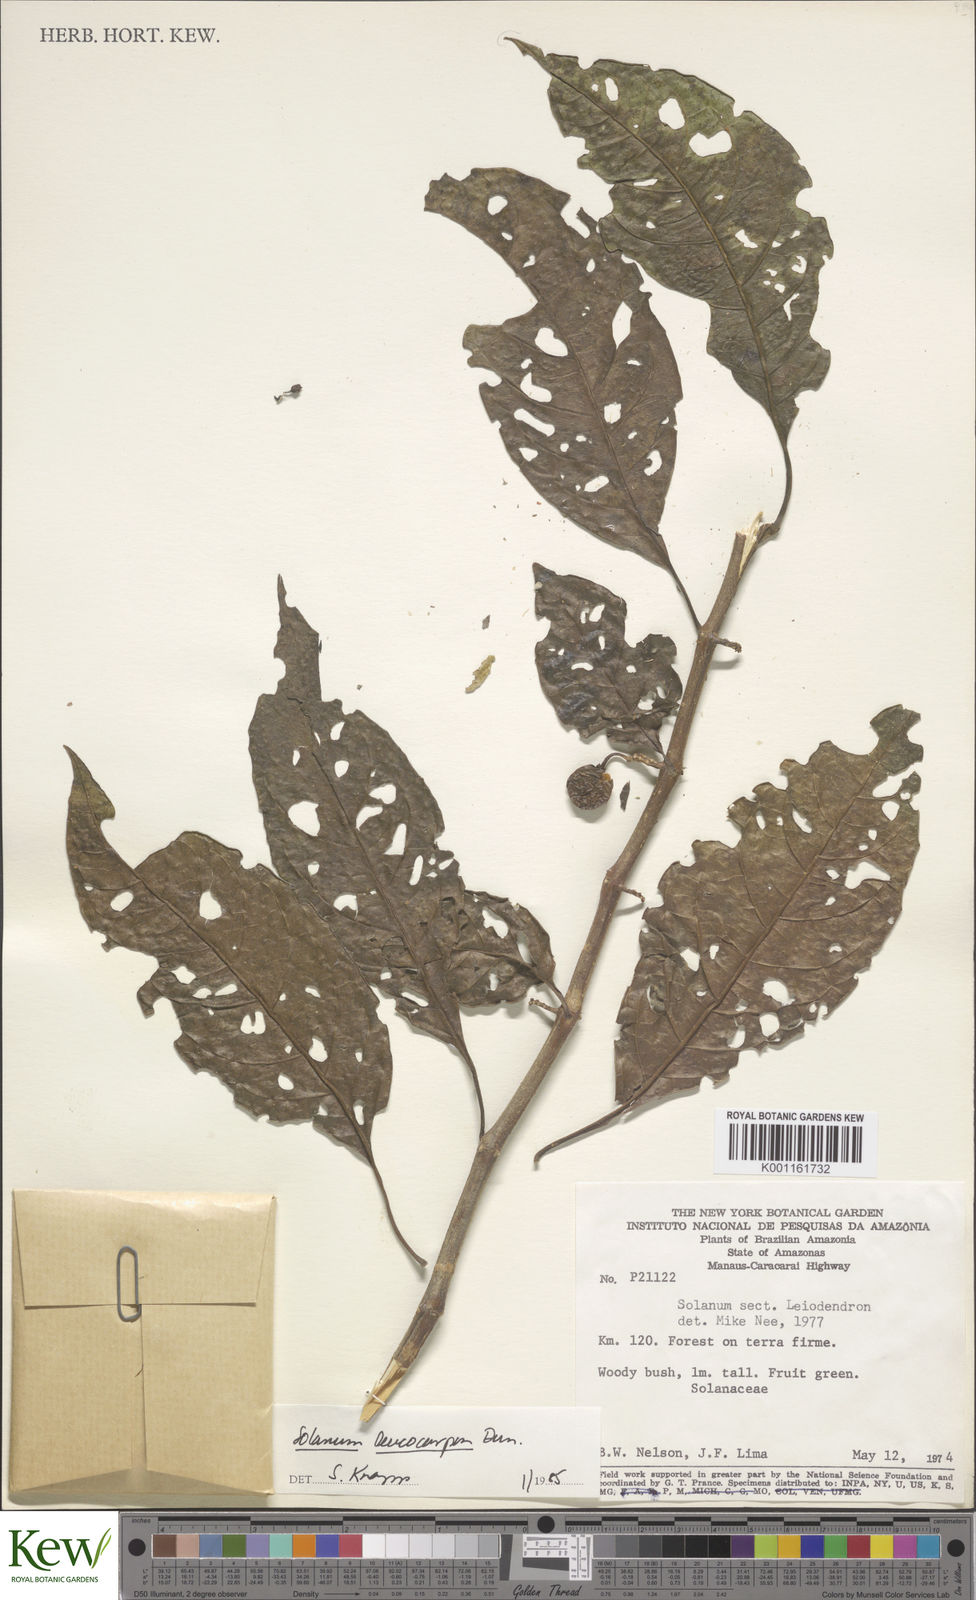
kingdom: Plantae
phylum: Tracheophyta
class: Magnoliopsida
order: Solanales
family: Solanaceae
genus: Solanum
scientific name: Solanum leucocarpon
